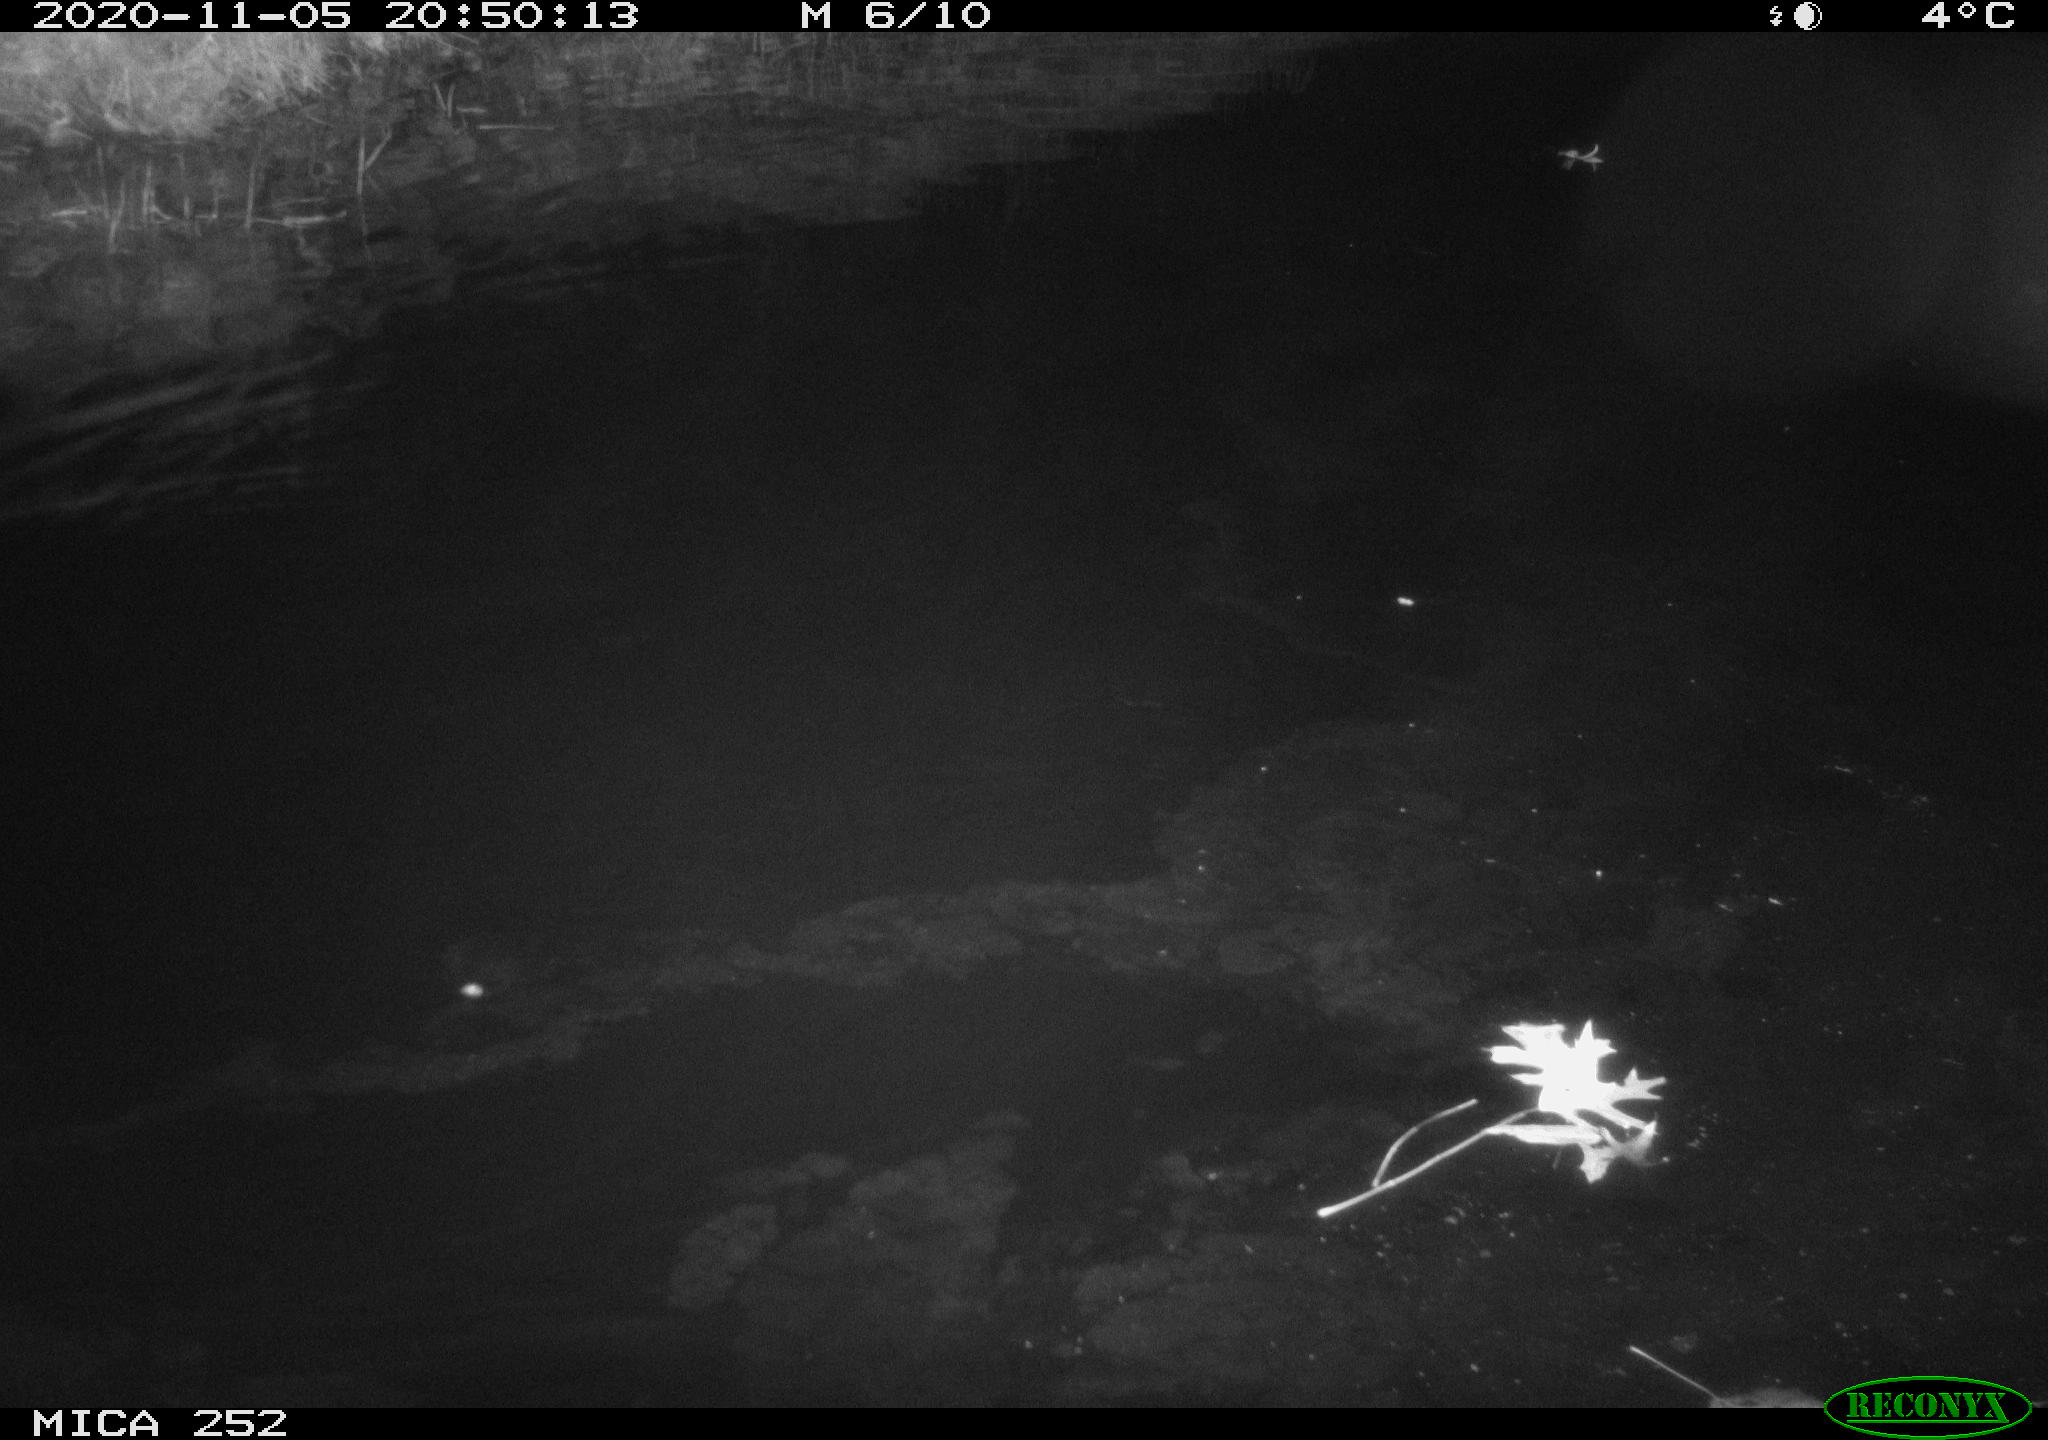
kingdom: Animalia
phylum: Chordata
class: Mammalia
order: Rodentia
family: Castoridae
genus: Castor
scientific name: Castor fiber
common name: Eurasian beaver
